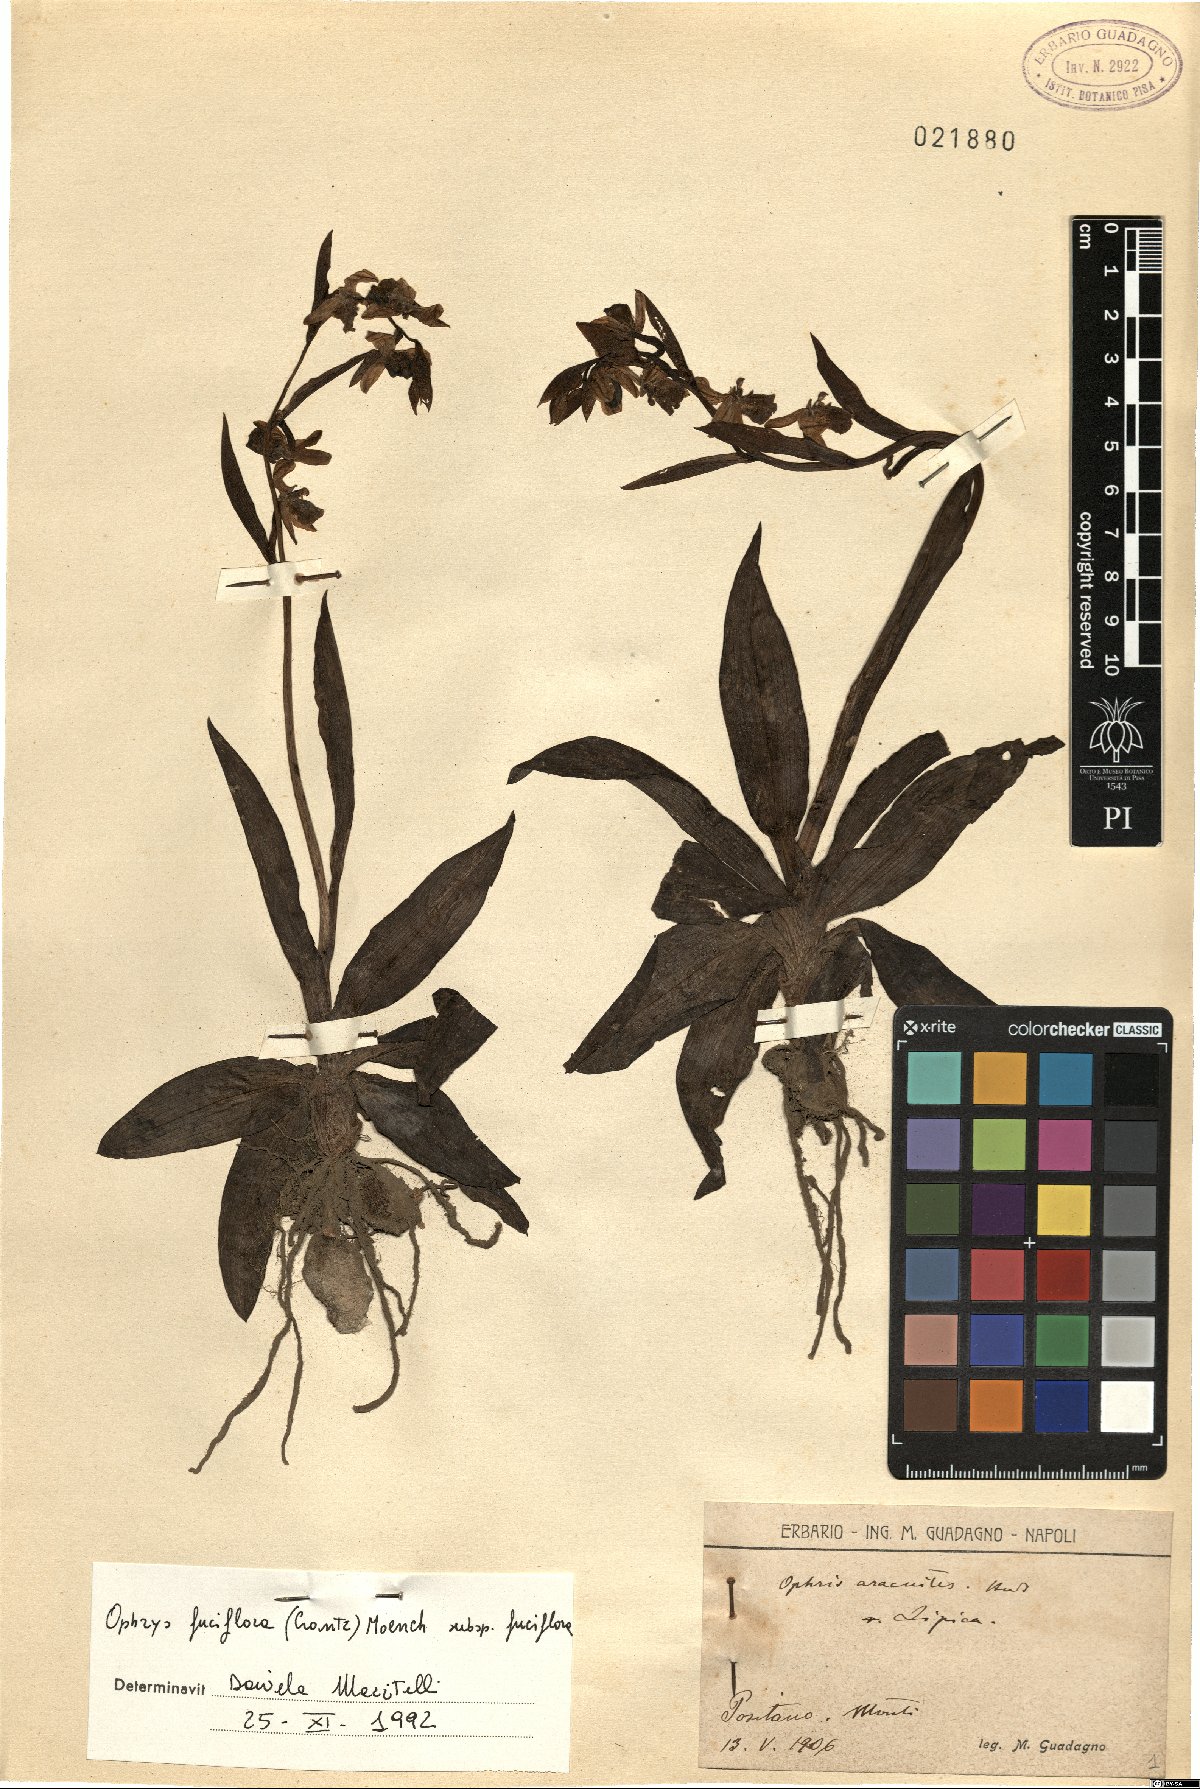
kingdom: Plantae
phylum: Tracheophyta
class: Liliopsida
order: Asparagales
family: Orchidaceae
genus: Ophrys
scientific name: Ophrys holosericea
